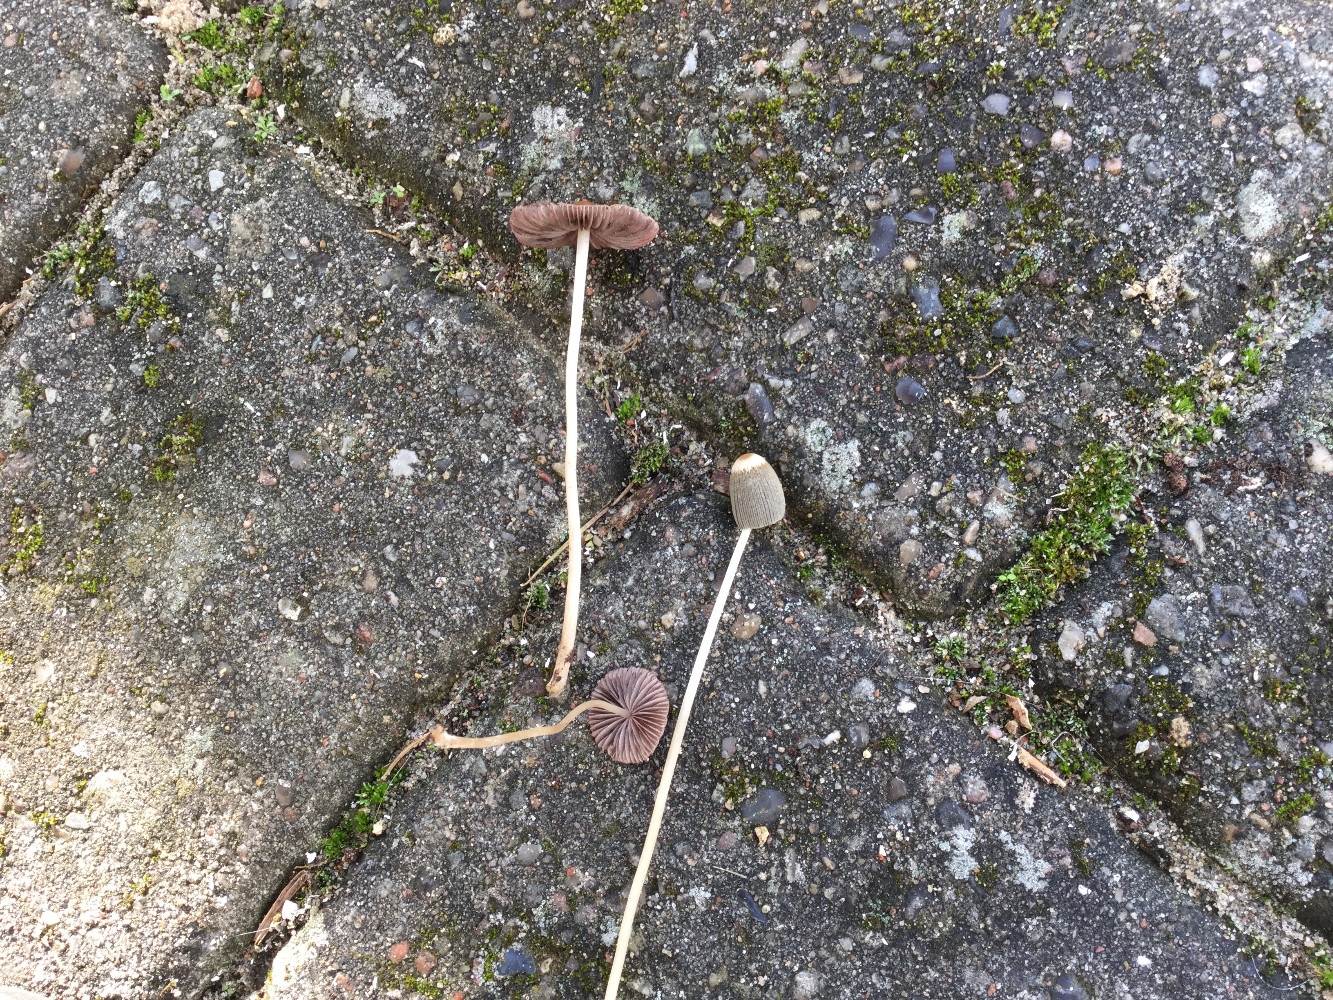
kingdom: Fungi
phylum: Basidiomycota
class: Agaricomycetes
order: Agaricales
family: Psathyrellaceae
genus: Parasola
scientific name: Parasola lactea
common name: glat hjulhat
